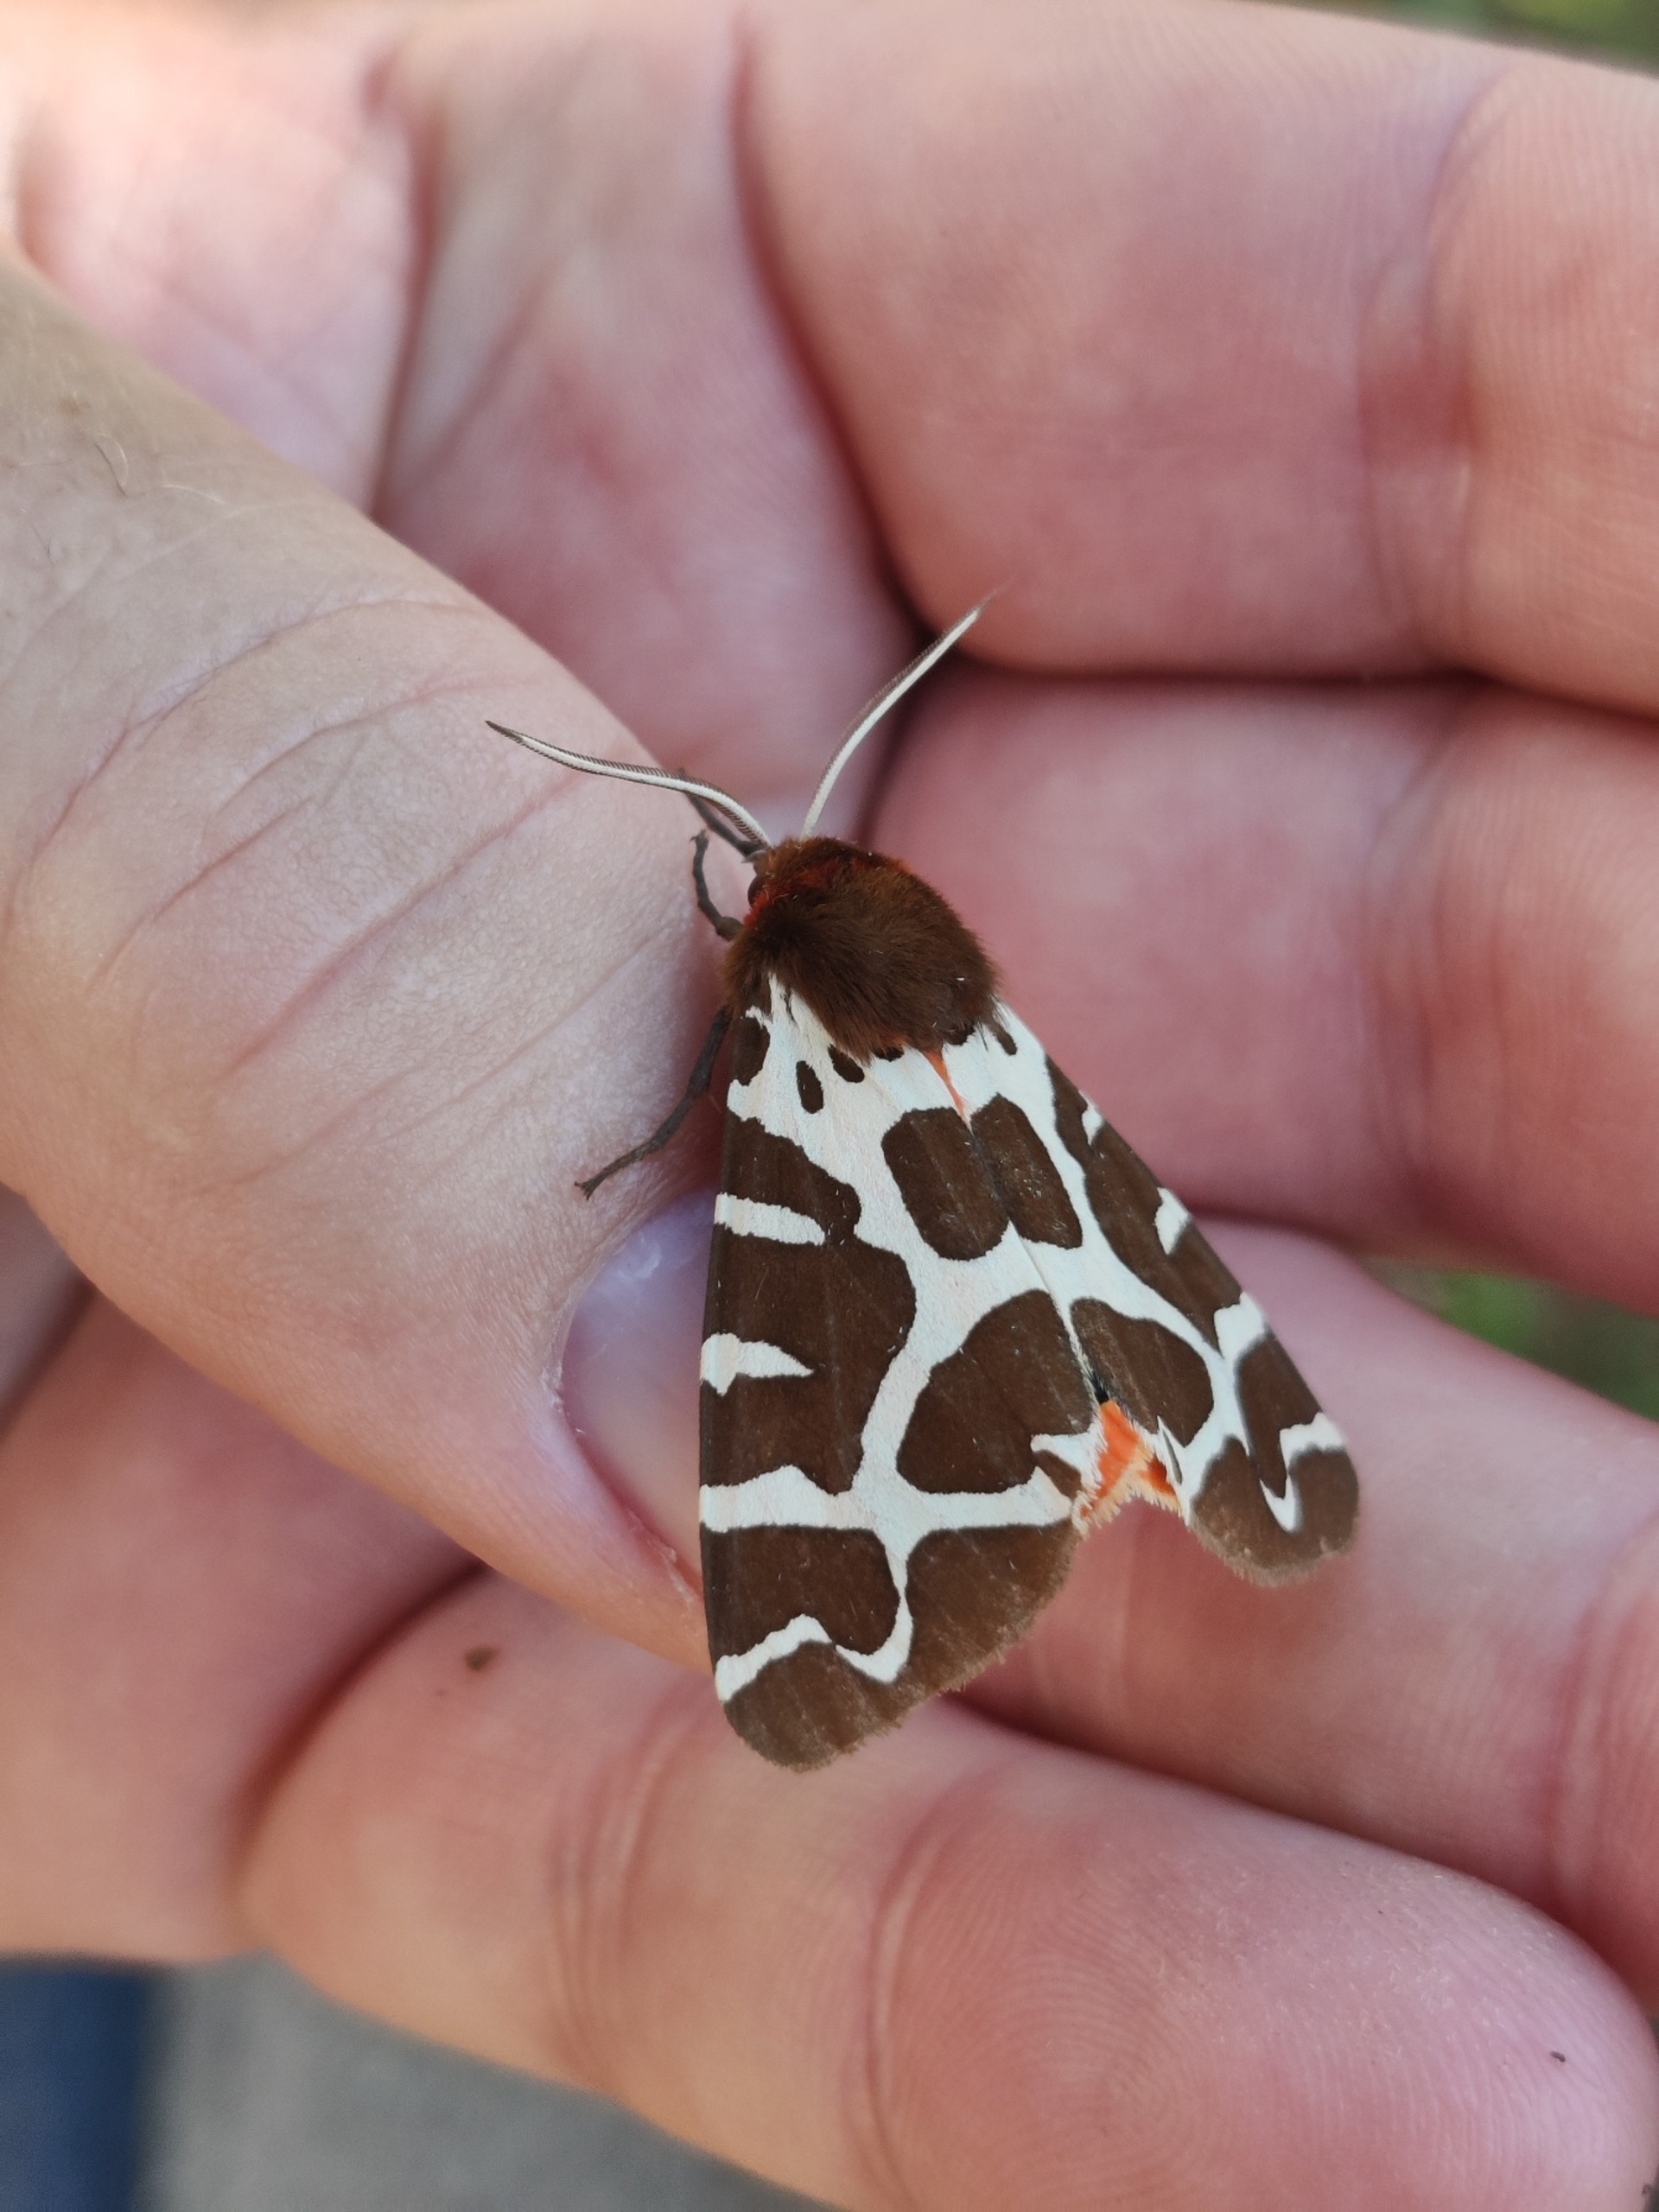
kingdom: Animalia
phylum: Arthropoda
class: Insecta
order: Lepidoptera
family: Erebidae
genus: Arctia
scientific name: Arctia caja
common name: Brun bjørn
